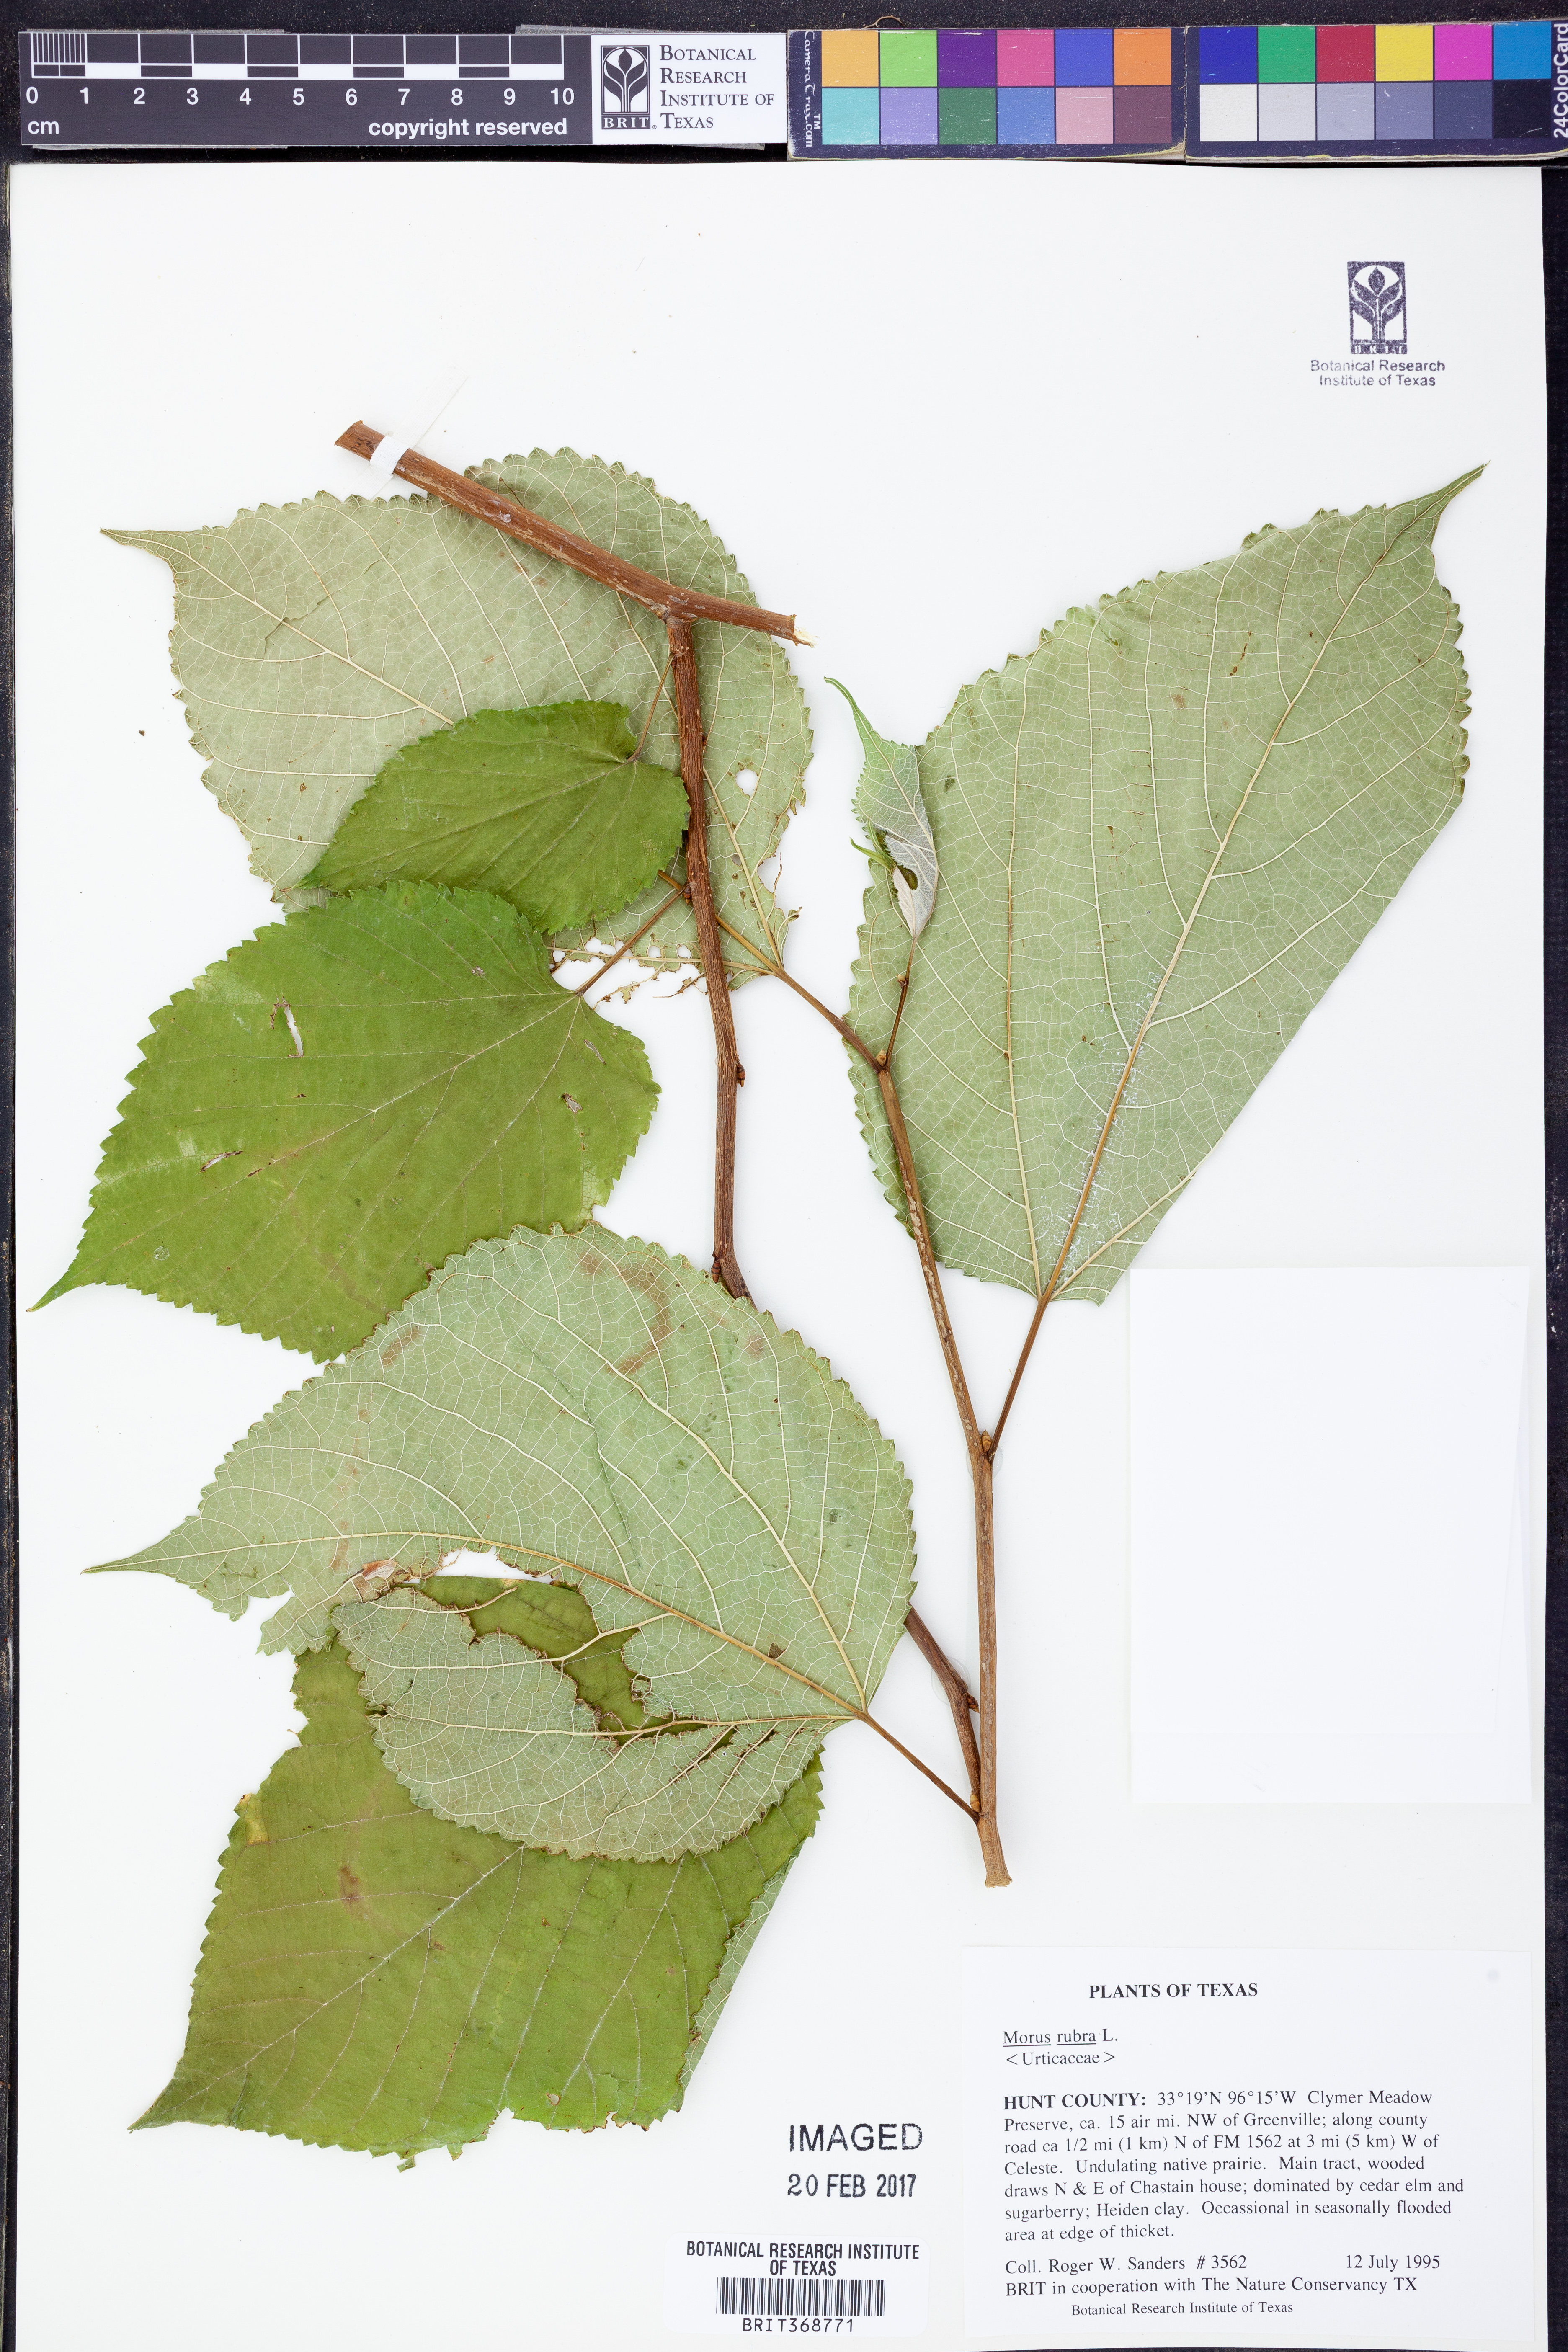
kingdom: Plantae
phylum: Tracheophyta
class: Magnoliopsida
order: Rosales
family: Moraceae
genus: Morus
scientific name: Morus rubra
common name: Red mulberry
